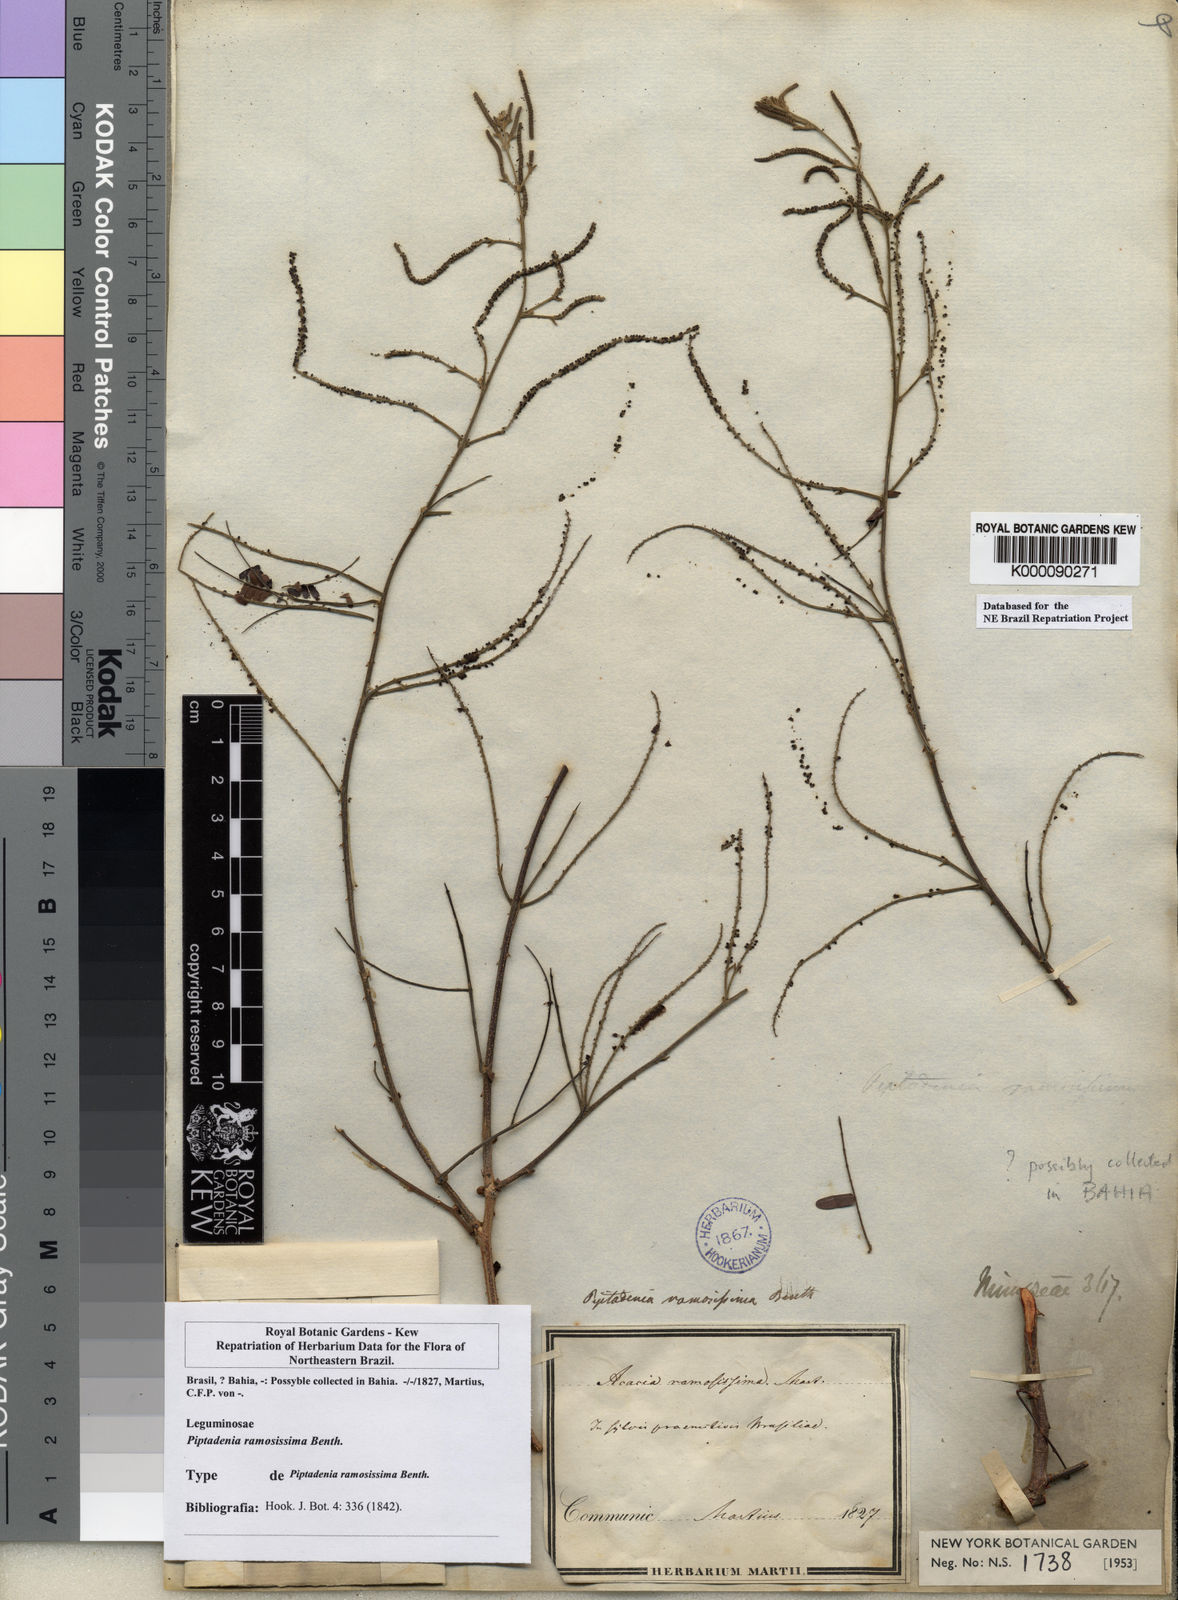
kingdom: Plantae
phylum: Tracheophyta
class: Magnoliopsida
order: Fabales
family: Fabaceae
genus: Piptadenia
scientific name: Piptadenia ramosissima
